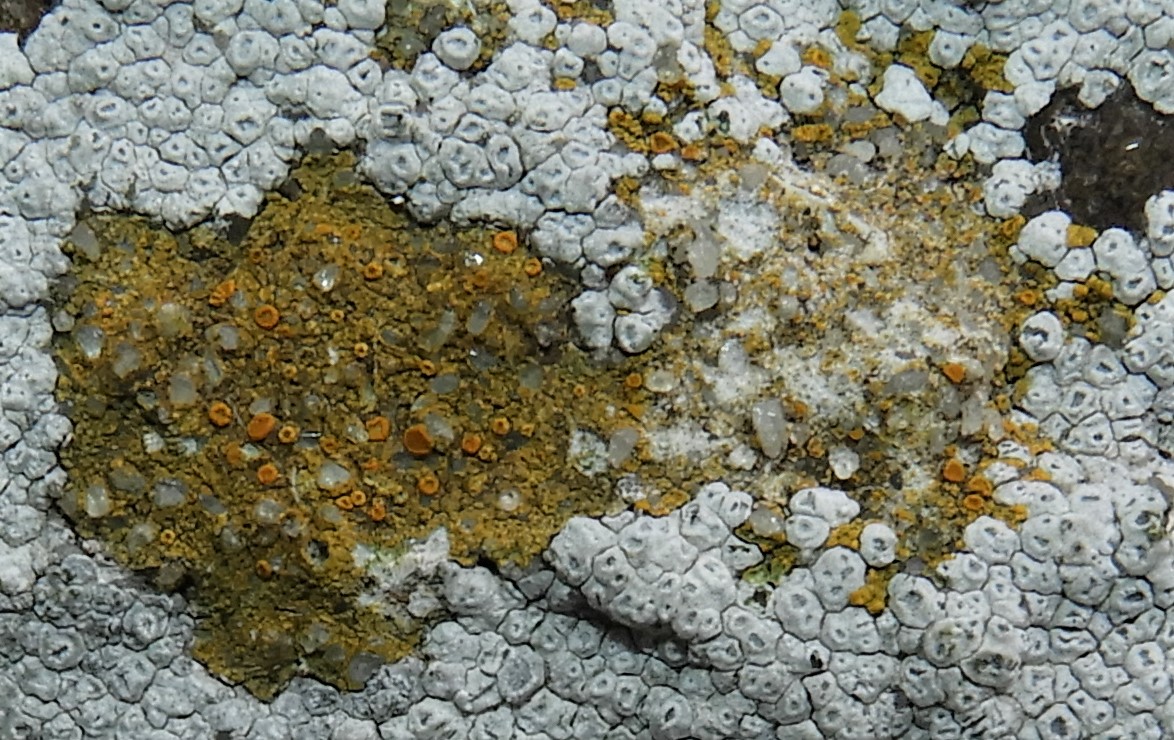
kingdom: Fungi
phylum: Ascomycota
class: Candelariomycetes
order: Candelariales
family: Candelariaceae
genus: Candelariella
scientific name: Candelariella vitellina
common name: almindelig æggeblommelav
